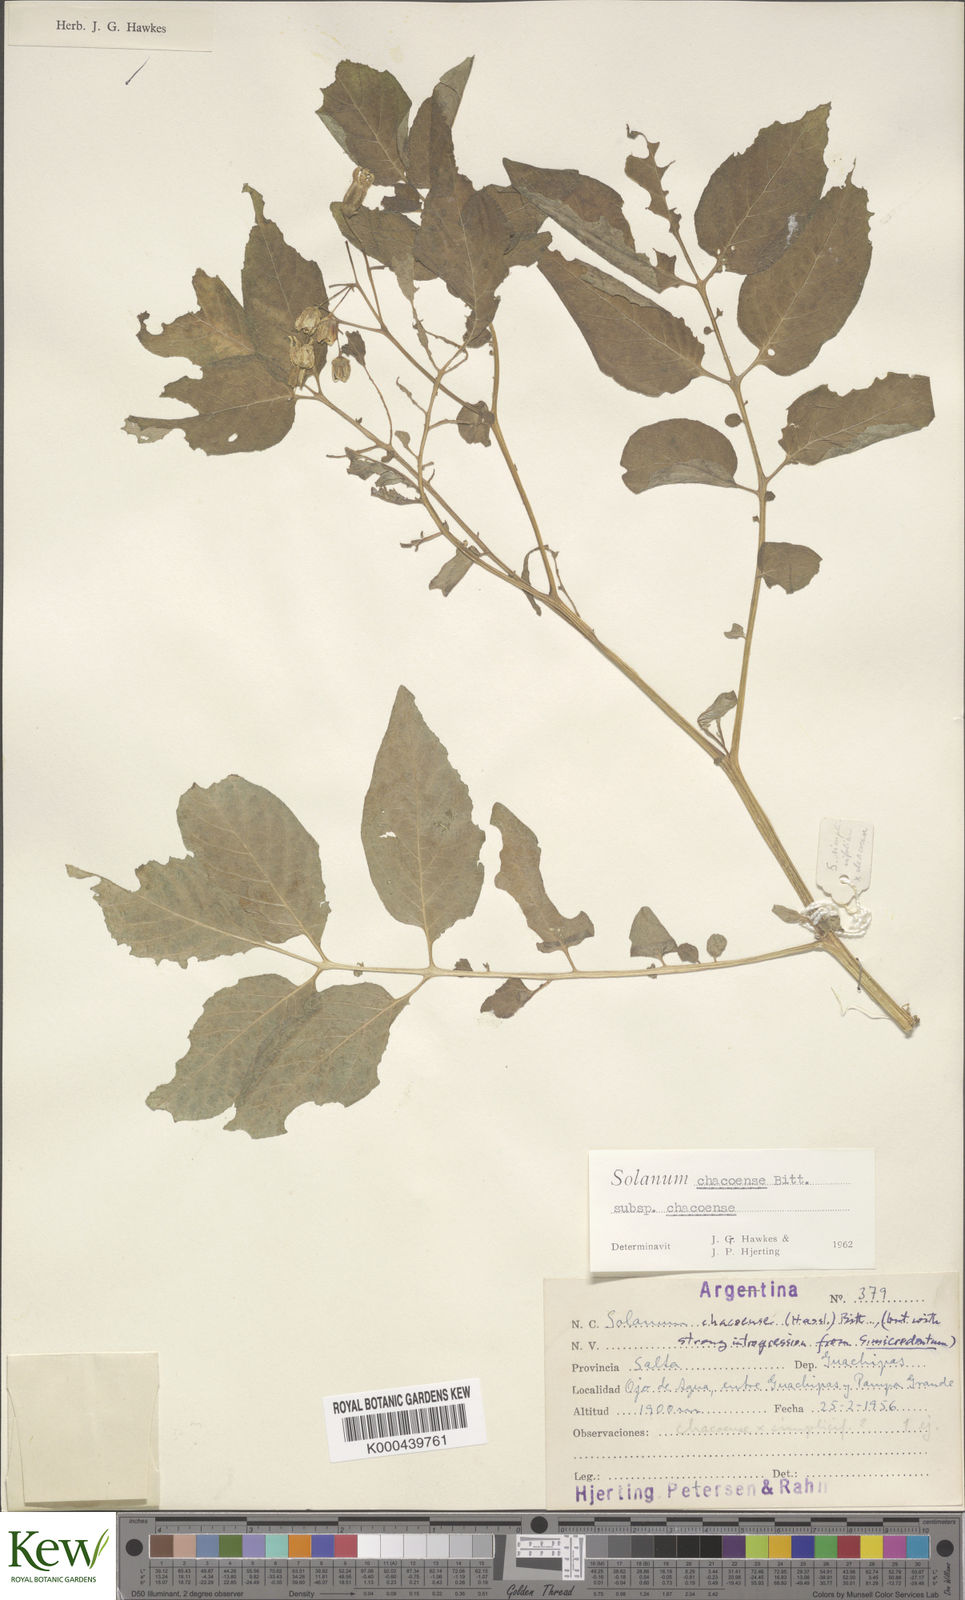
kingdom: Plantae
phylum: Tracheophyta
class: Magnoliopsida
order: Solanales
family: Solanaceae
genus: Solanum
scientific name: Solanum chacoense
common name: Chaco potato
